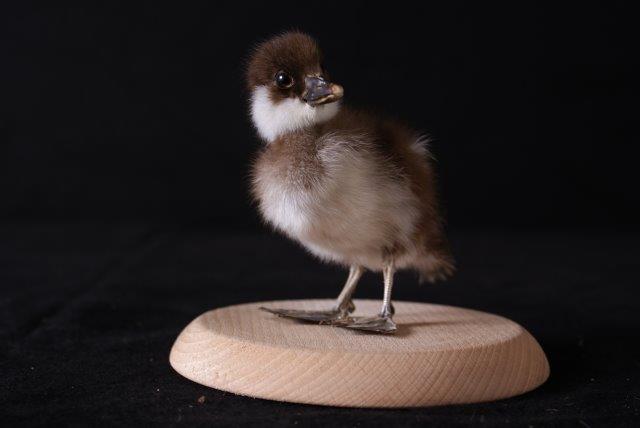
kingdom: Animalia
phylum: Chordata
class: Aves
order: Anseriformes
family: Anatidae
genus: Bucephala
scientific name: Bucephala islandica
